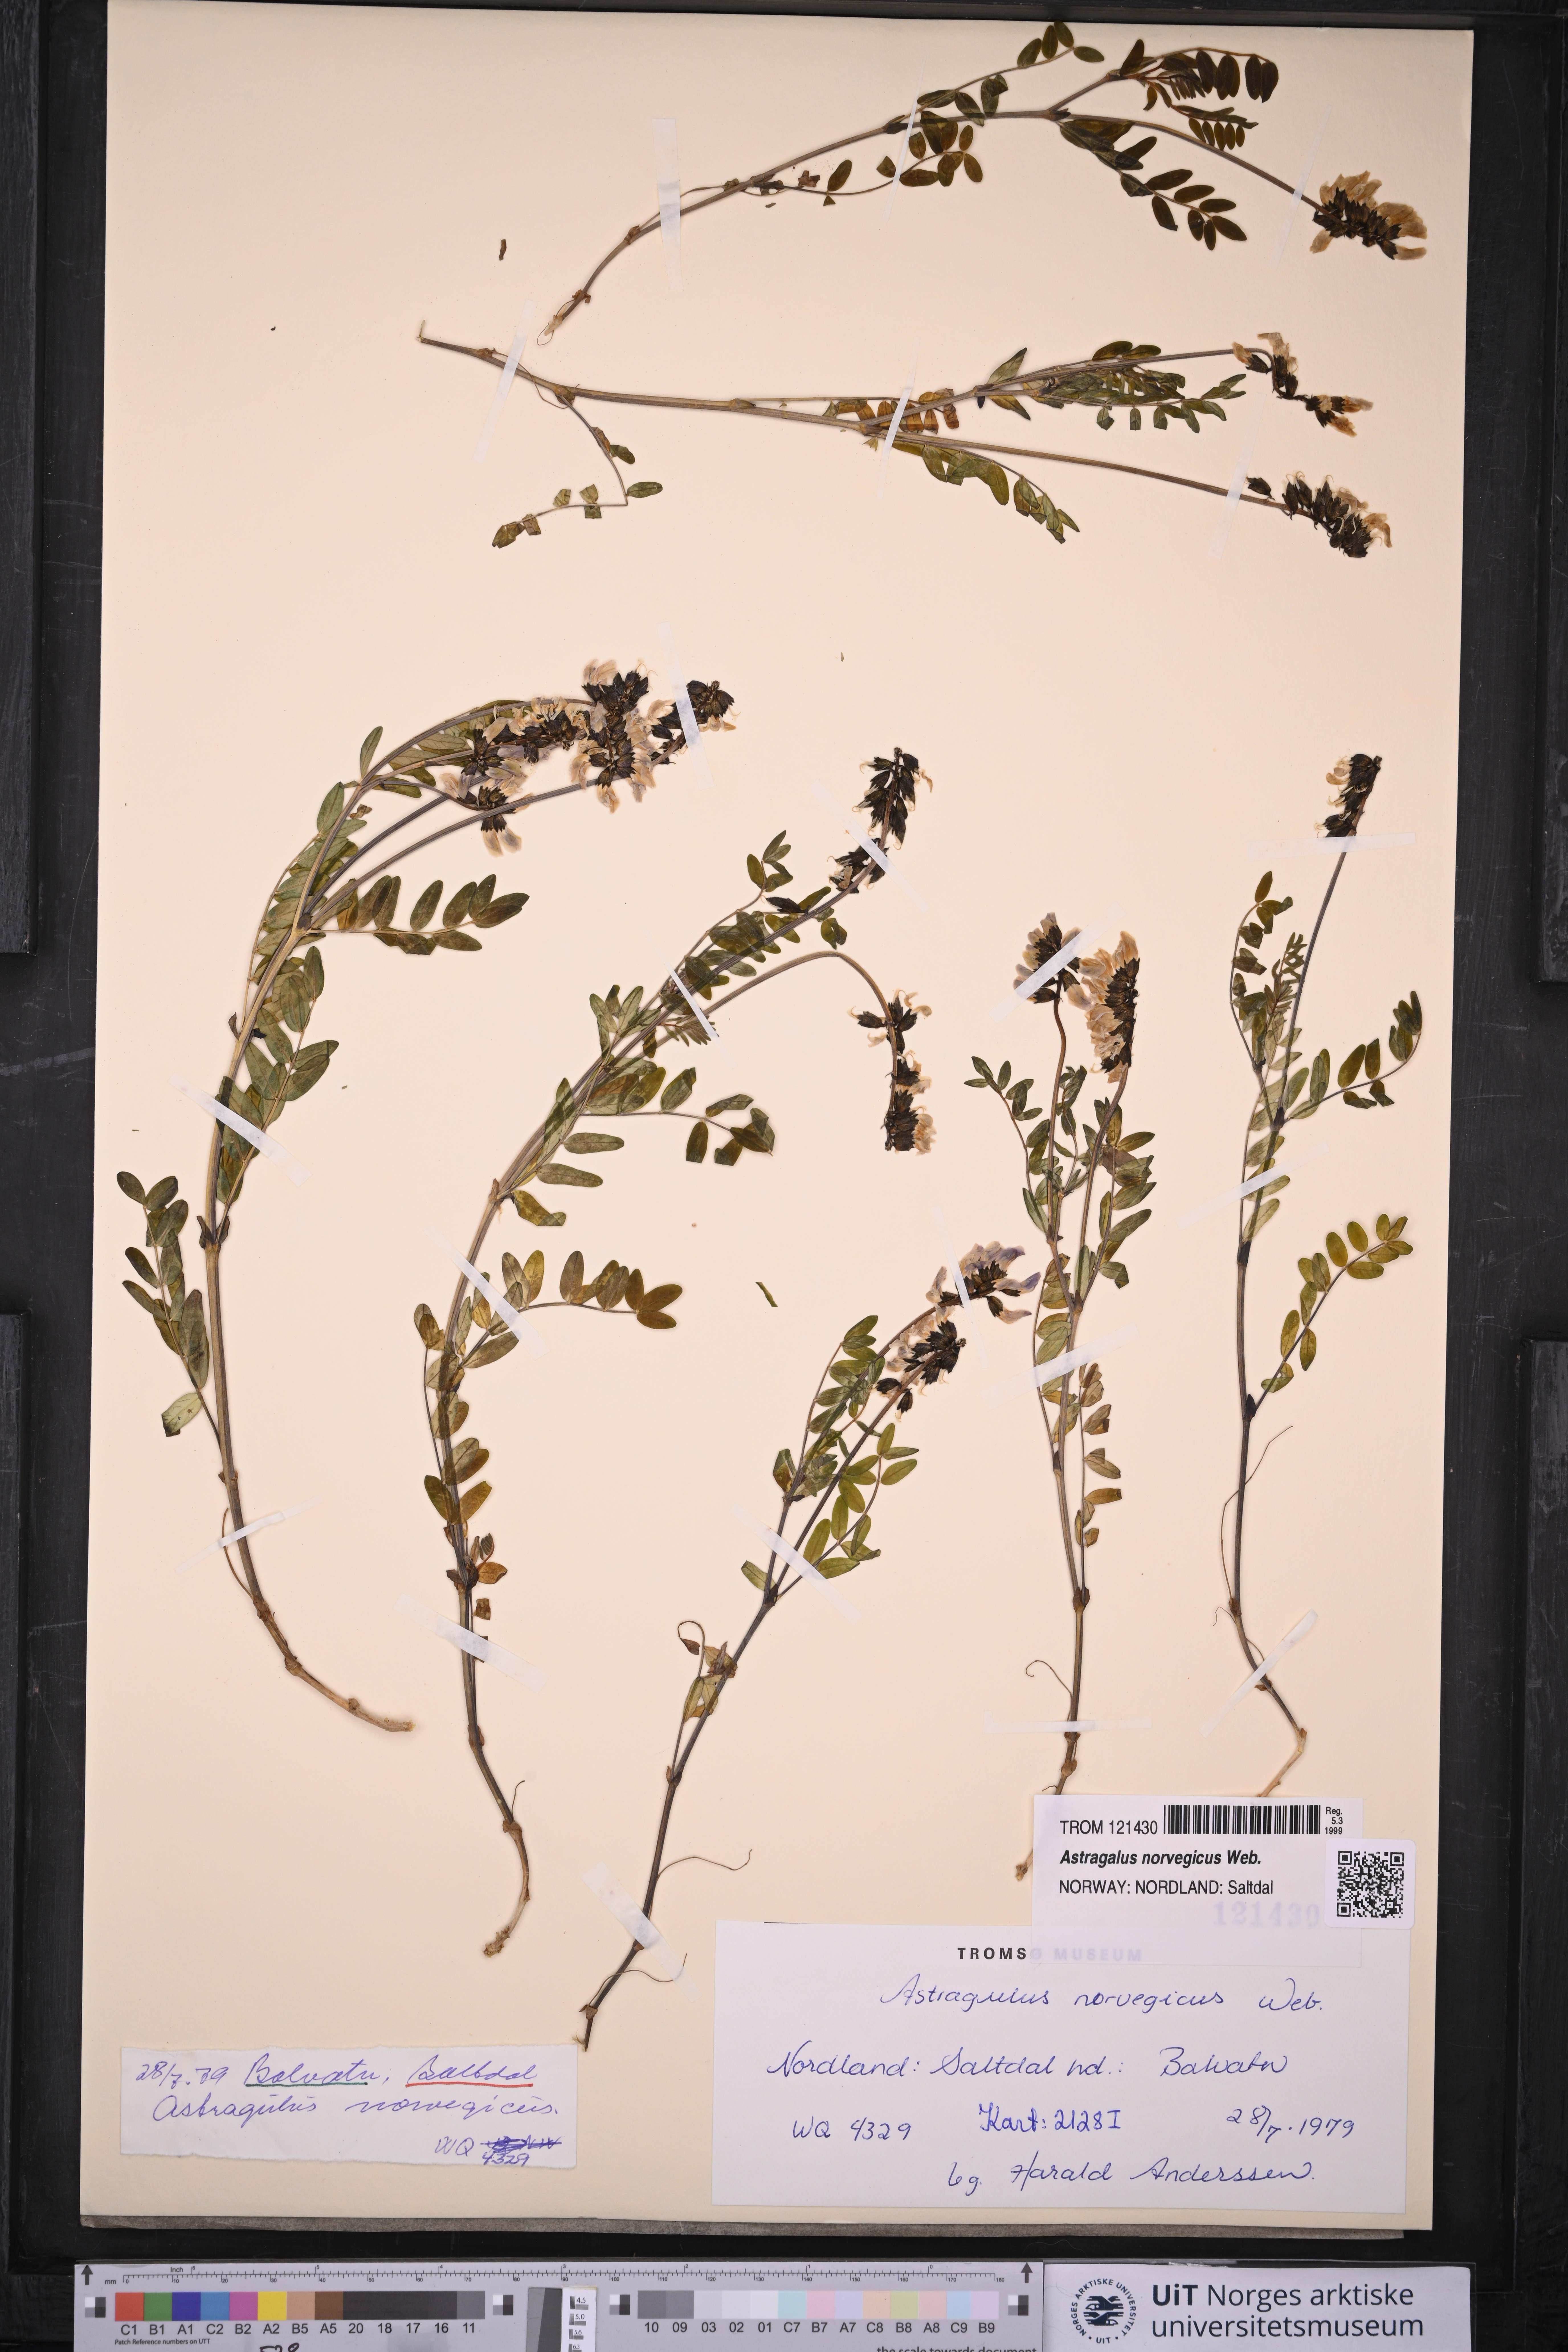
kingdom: Plantae
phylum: Tracheophyta
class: Magnoliopsida
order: Fabales
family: Fabaceae
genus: Astragalus
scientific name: Astragalus norvegicus
